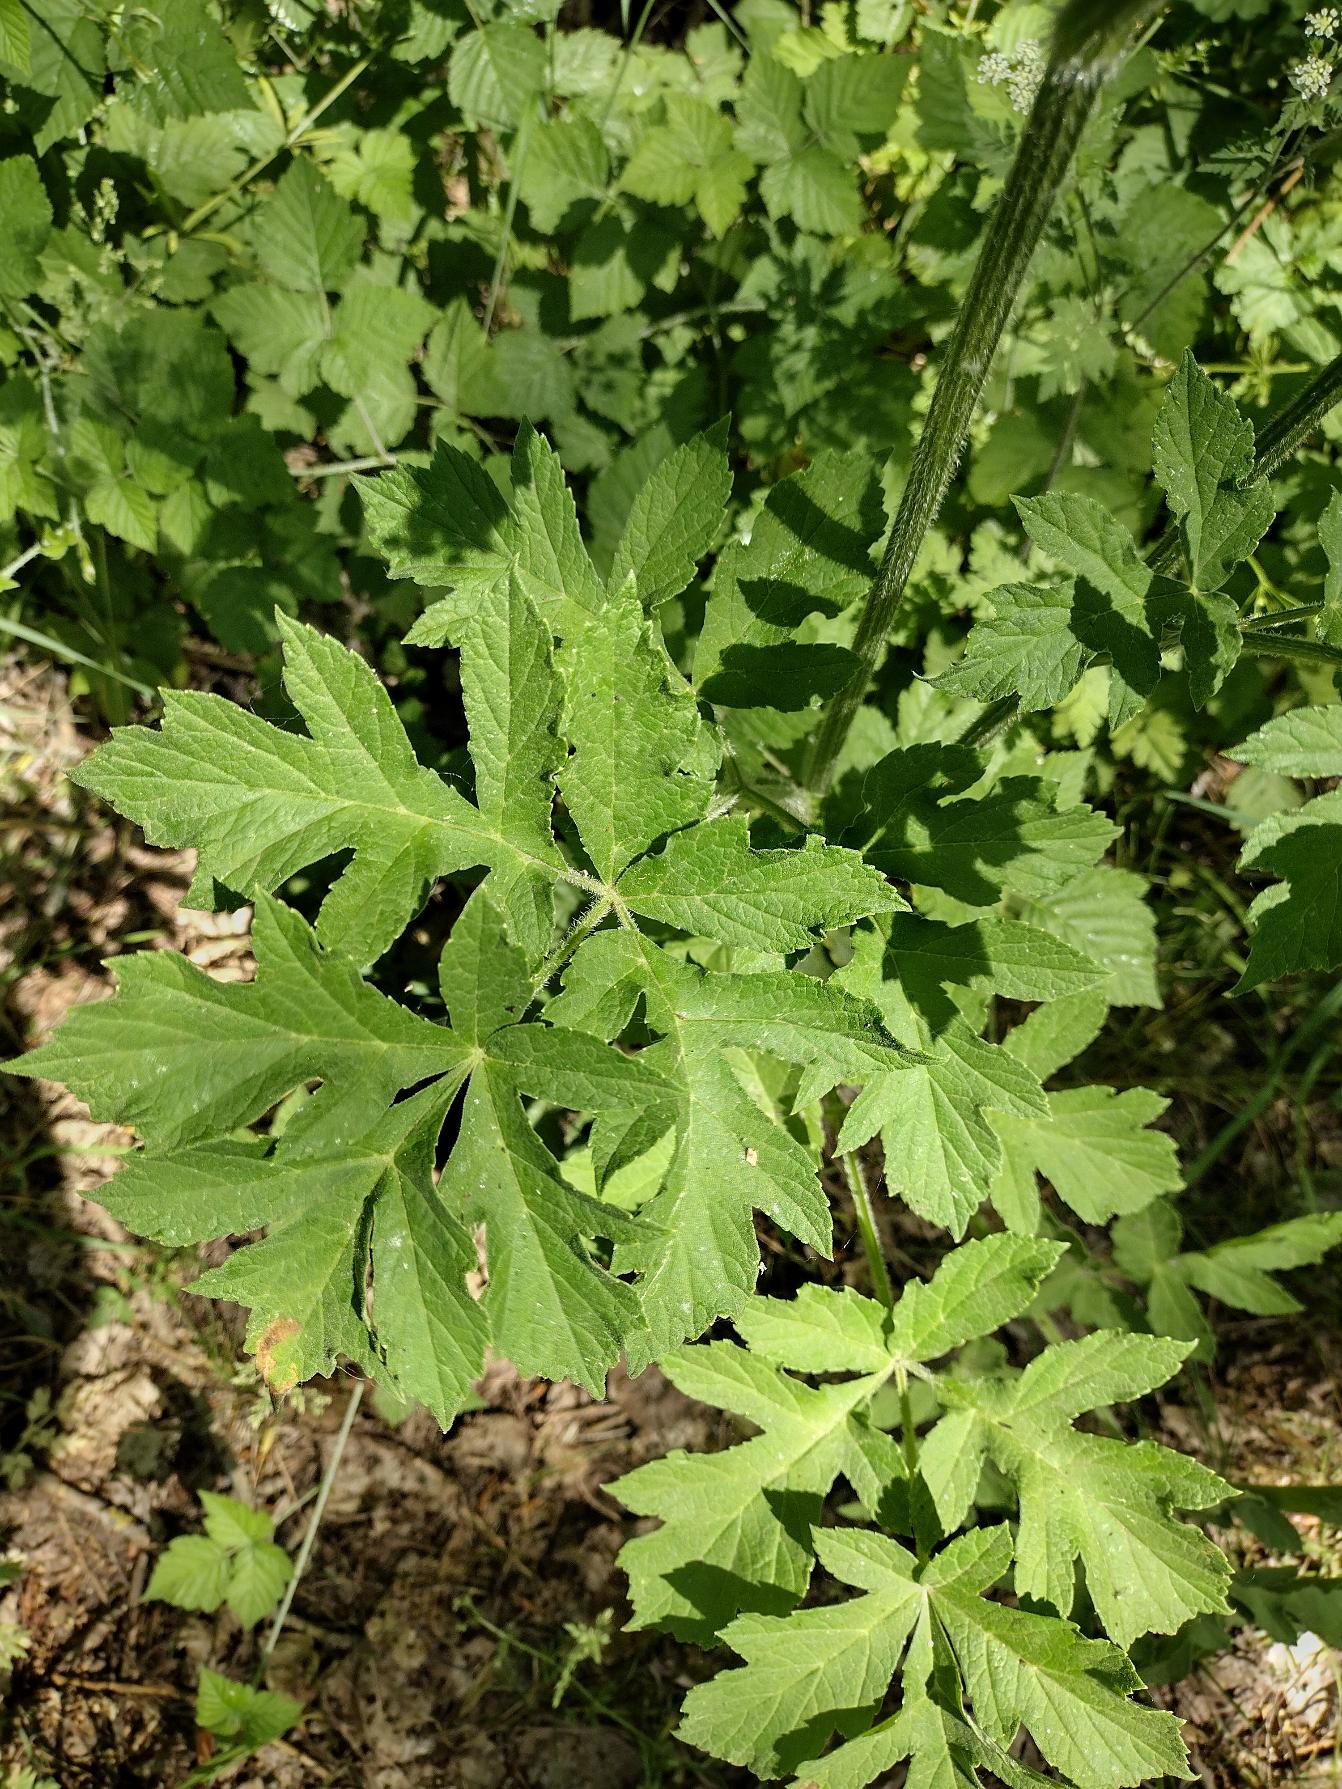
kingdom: Plantae
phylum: Tracheophyta
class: Magnoliopsida
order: Apiales
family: Apiaceae
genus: Heracleum
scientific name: Heracleum sphondylium
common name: Almindelig bjørneklo
